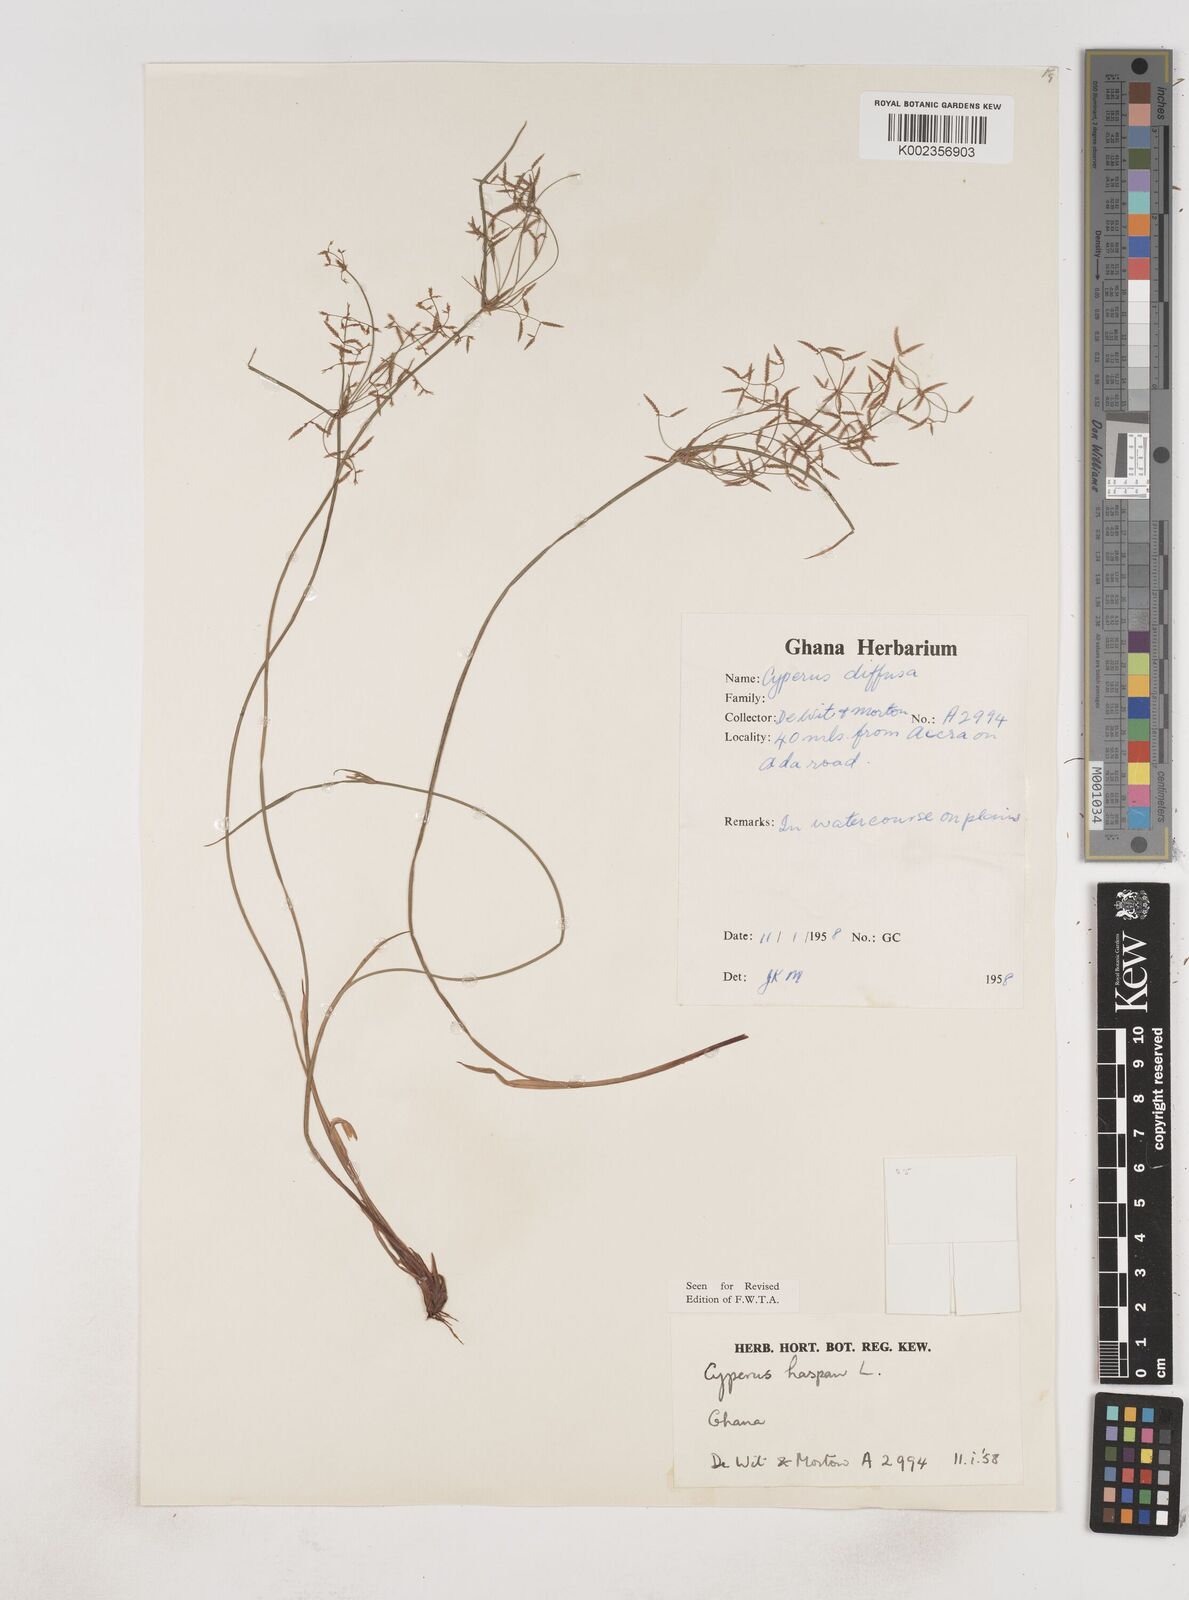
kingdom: Plantae
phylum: Tracheophyta
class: Liliopsida
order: Poales
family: Cyperaceae
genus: Cyperus
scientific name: Cyperus haspan
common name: Haspan flatsedge
